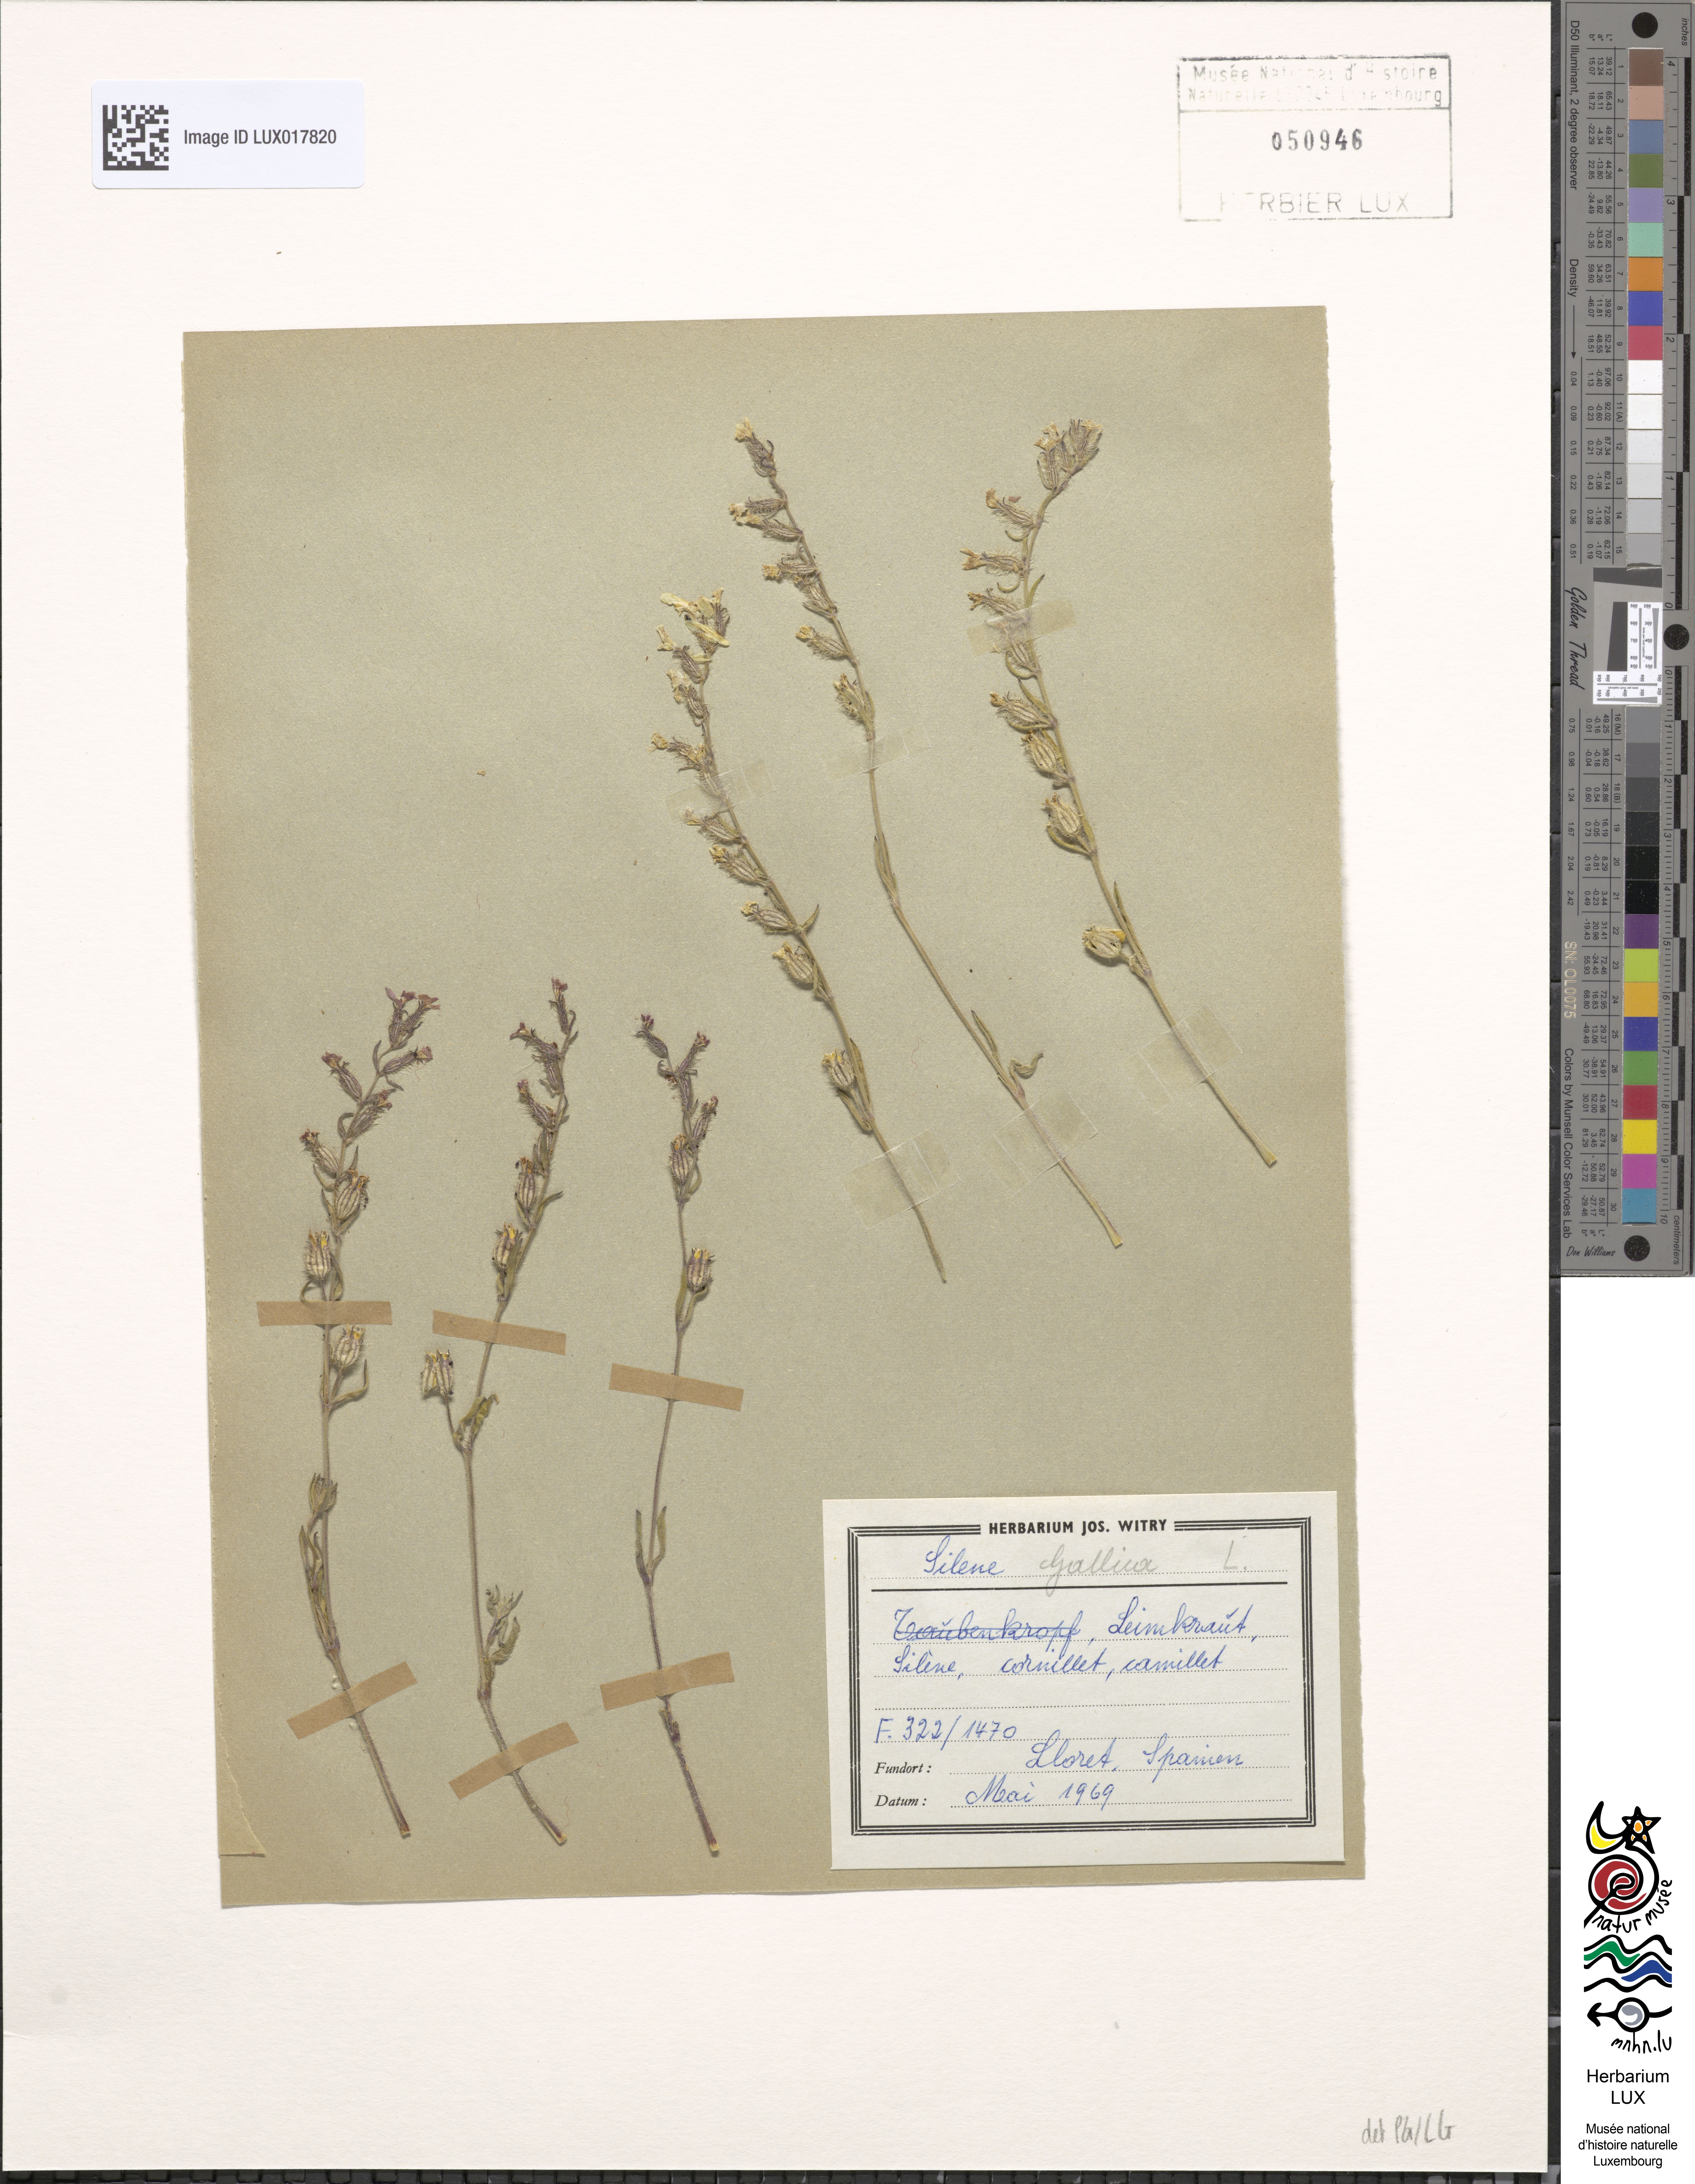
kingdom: Plantae
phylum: Tracheophyta
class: Magnoliopsida
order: Caryophyllales
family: Caryophyllaceae
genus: Silene
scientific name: Silene gallica
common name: Small-flowered catchfly
